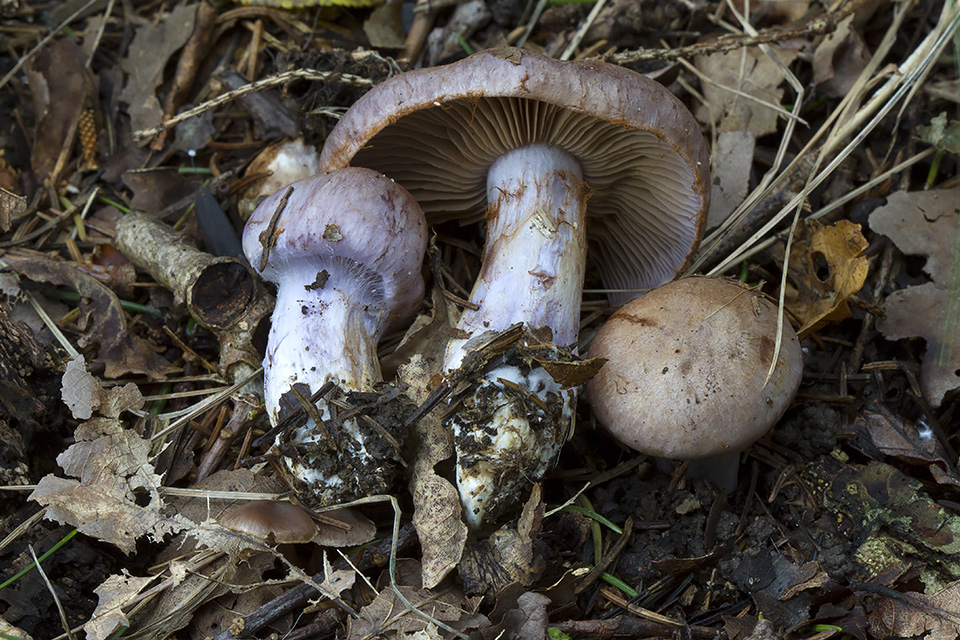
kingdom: Fungi
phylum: Basidiomycota
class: Agaricomycetes
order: Agaricales
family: Cortinariaceae
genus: Cortinarius
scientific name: Cortinarius largus
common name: violetrandet slørhat
